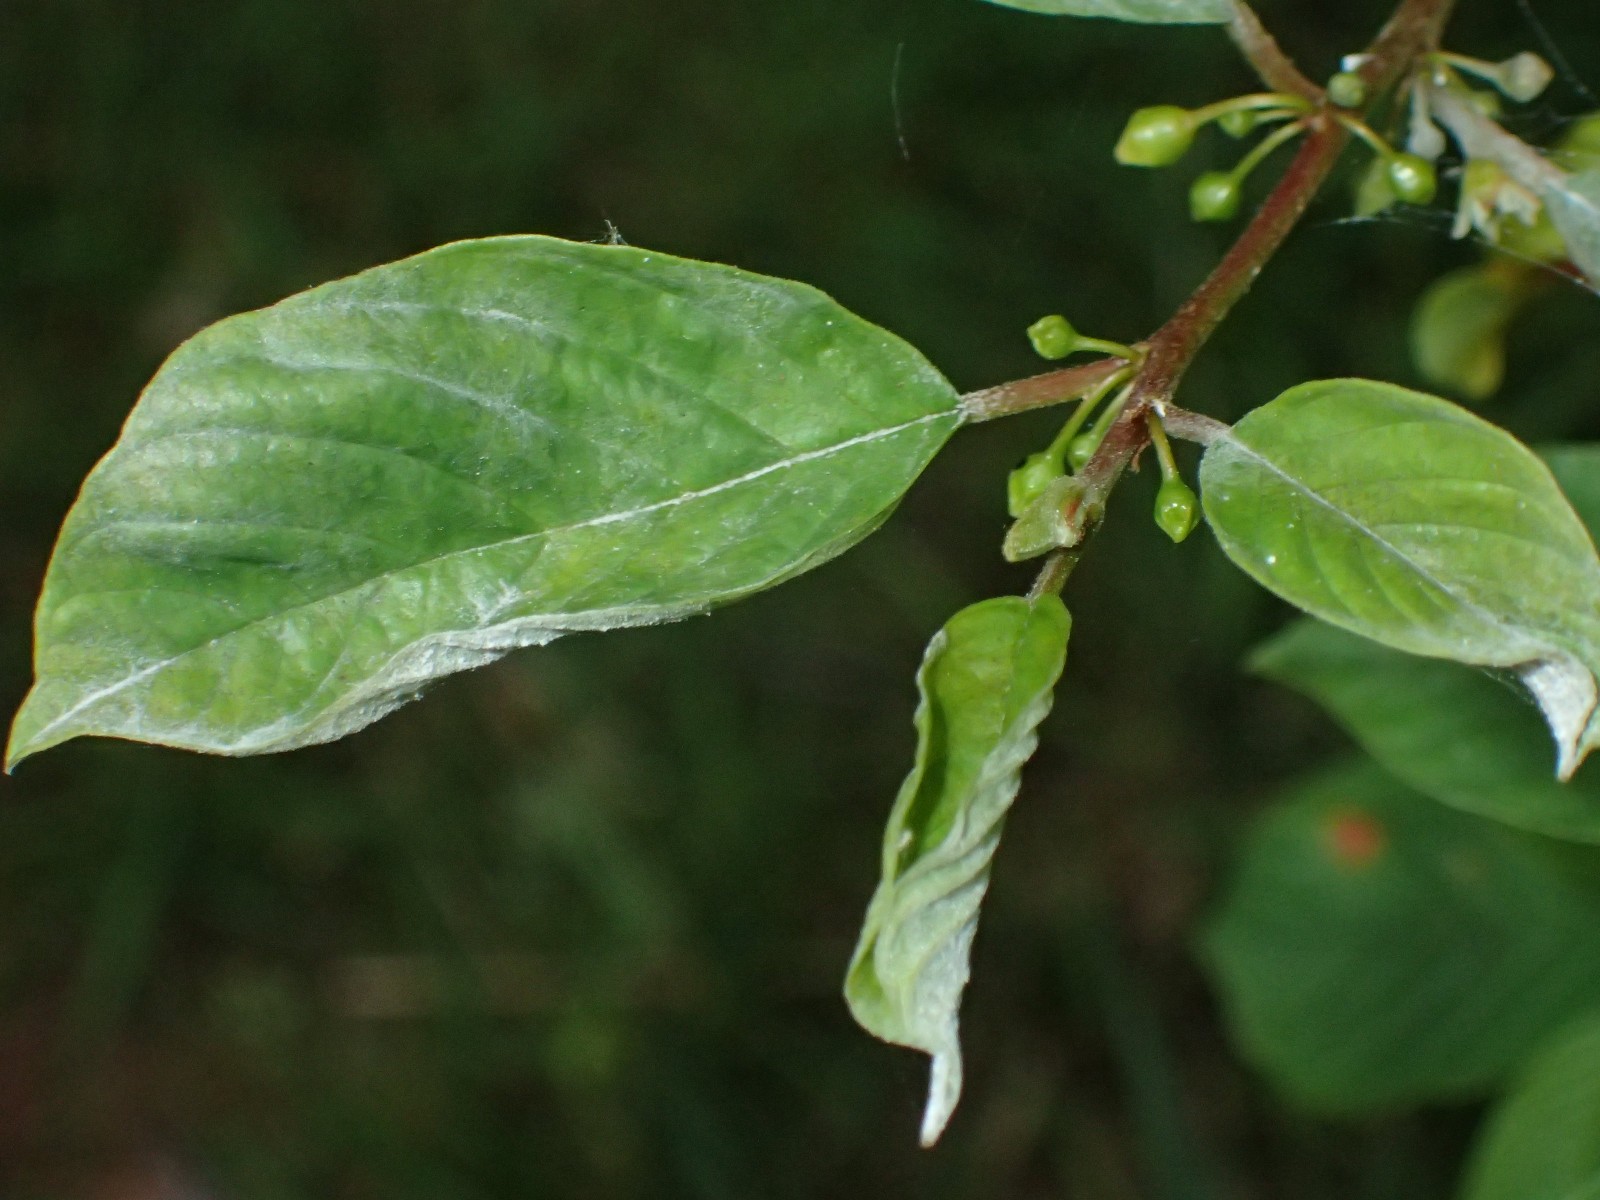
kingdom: Fungi
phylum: Ascomycota
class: Leotiomycetes
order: Helotiales
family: Erysiphaceae
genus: Erysiphe
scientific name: Erysiphe divaricata
